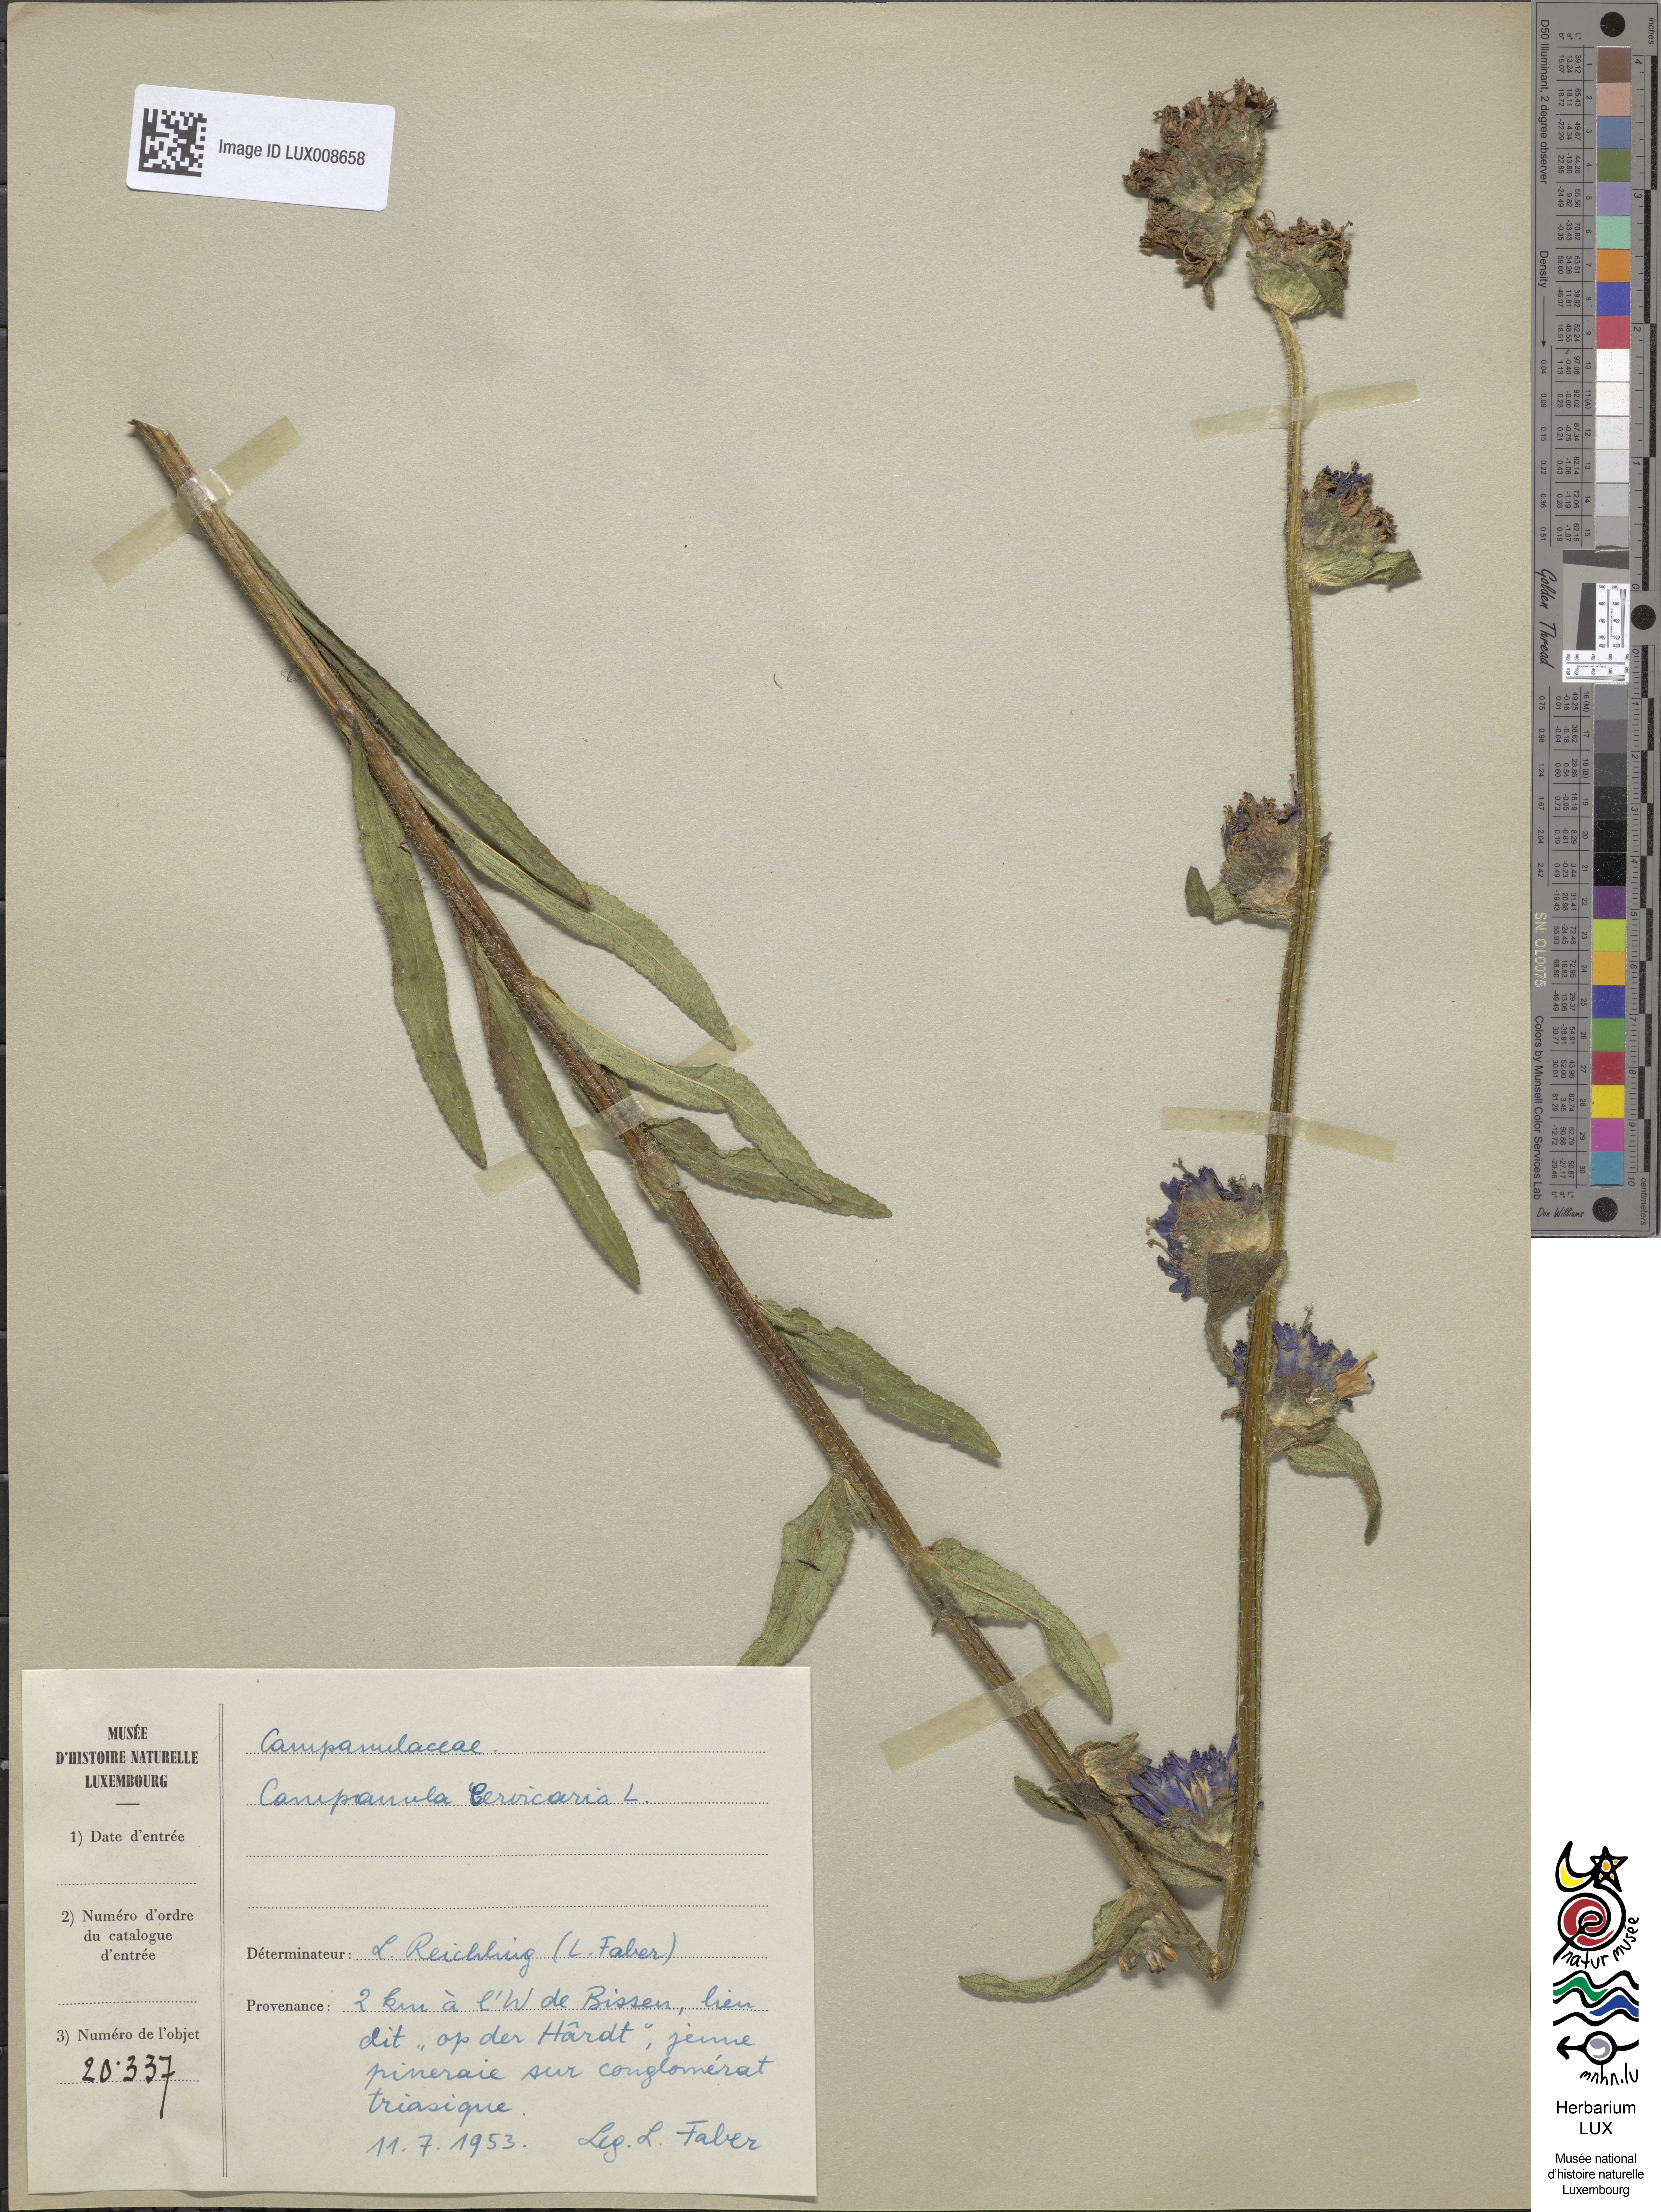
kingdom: Plantae
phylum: Tracheophyta
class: Magnoliopsida
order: Asterales
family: Campanulaceae
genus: Campanula
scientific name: Campanula cervicaria
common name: Bristly bellflower
